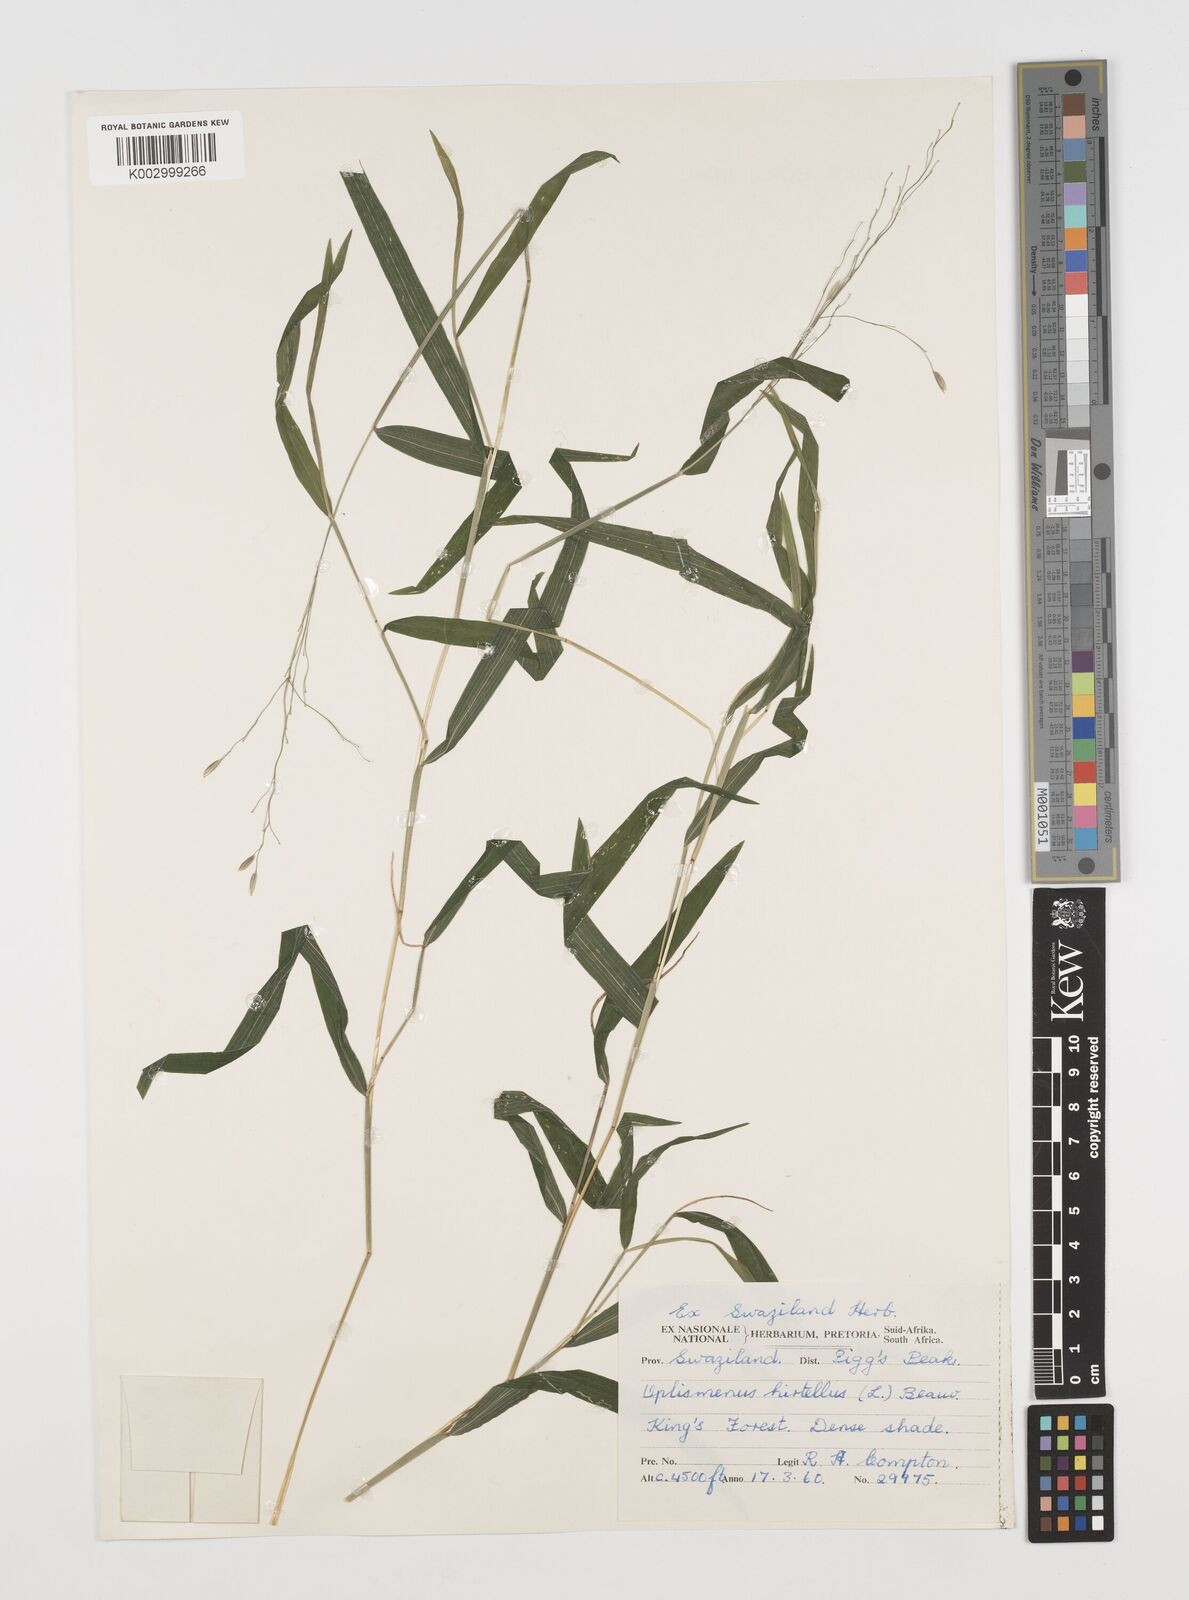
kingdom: Plantae
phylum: Tracheophyta
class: Liliopsida
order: Poales
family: Poaceae
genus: Prosphytochloa
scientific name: Prosphytochloa prehensilis
